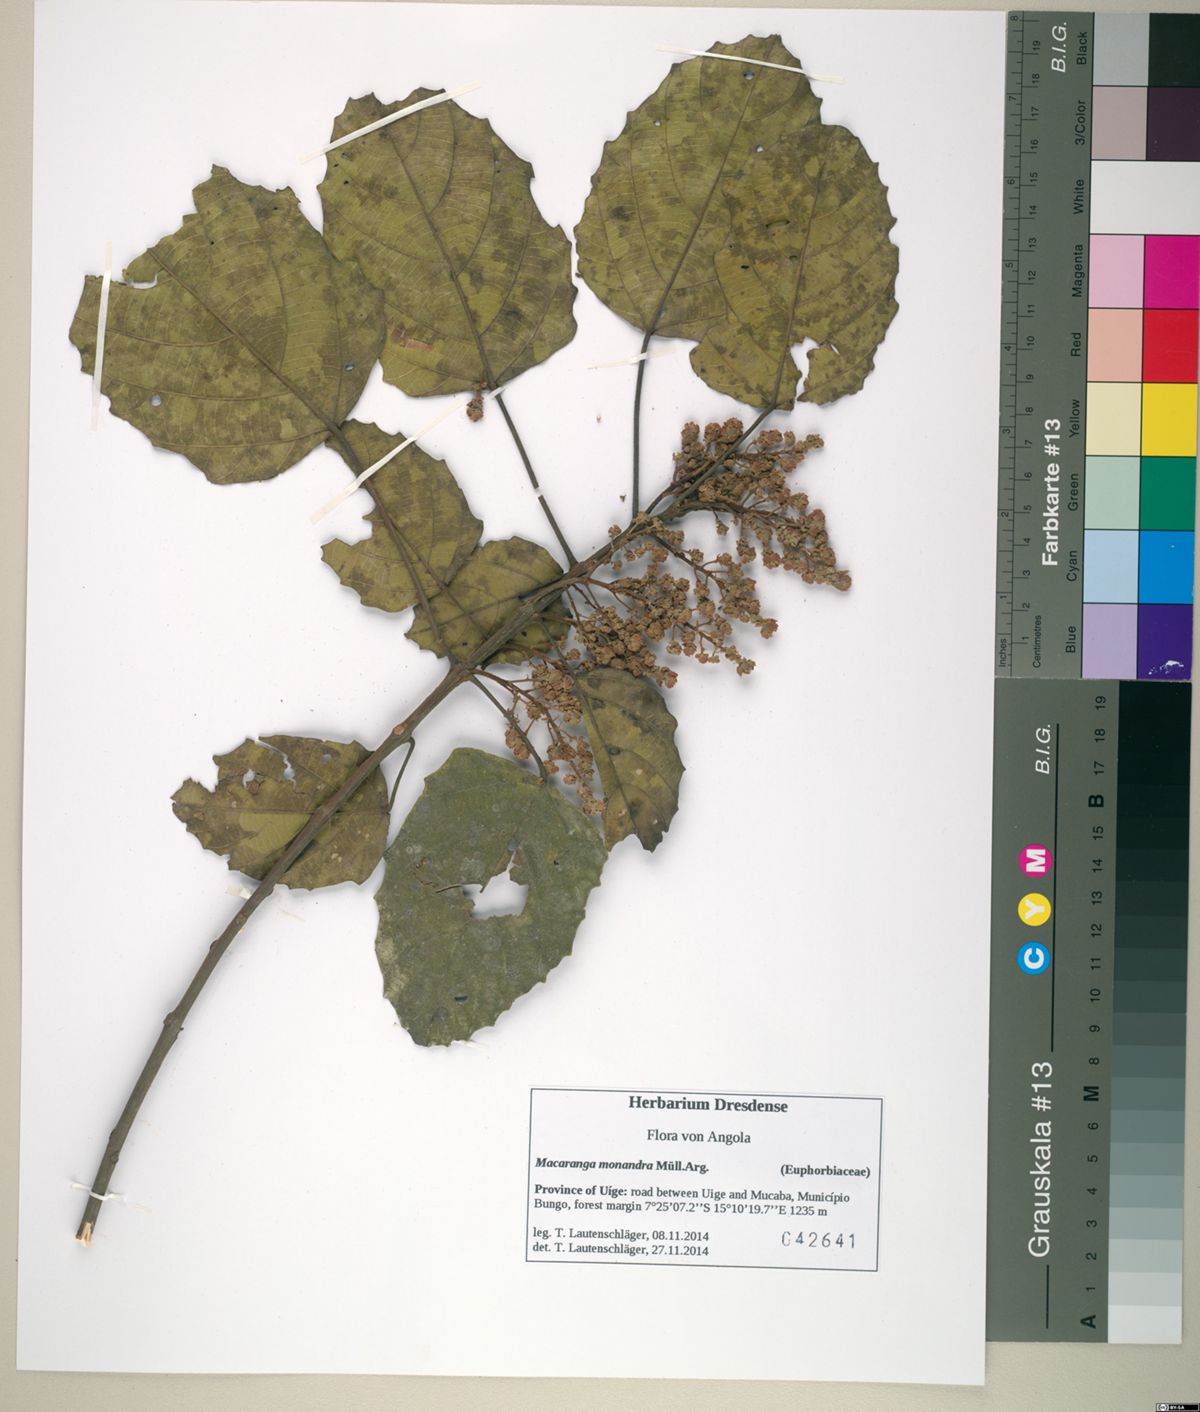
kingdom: Plantae
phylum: Tracheophyta
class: Magnoliopsida
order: Malpighiales
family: Euphorbiaceae
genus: Macaranga
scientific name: Macaranga monandra
